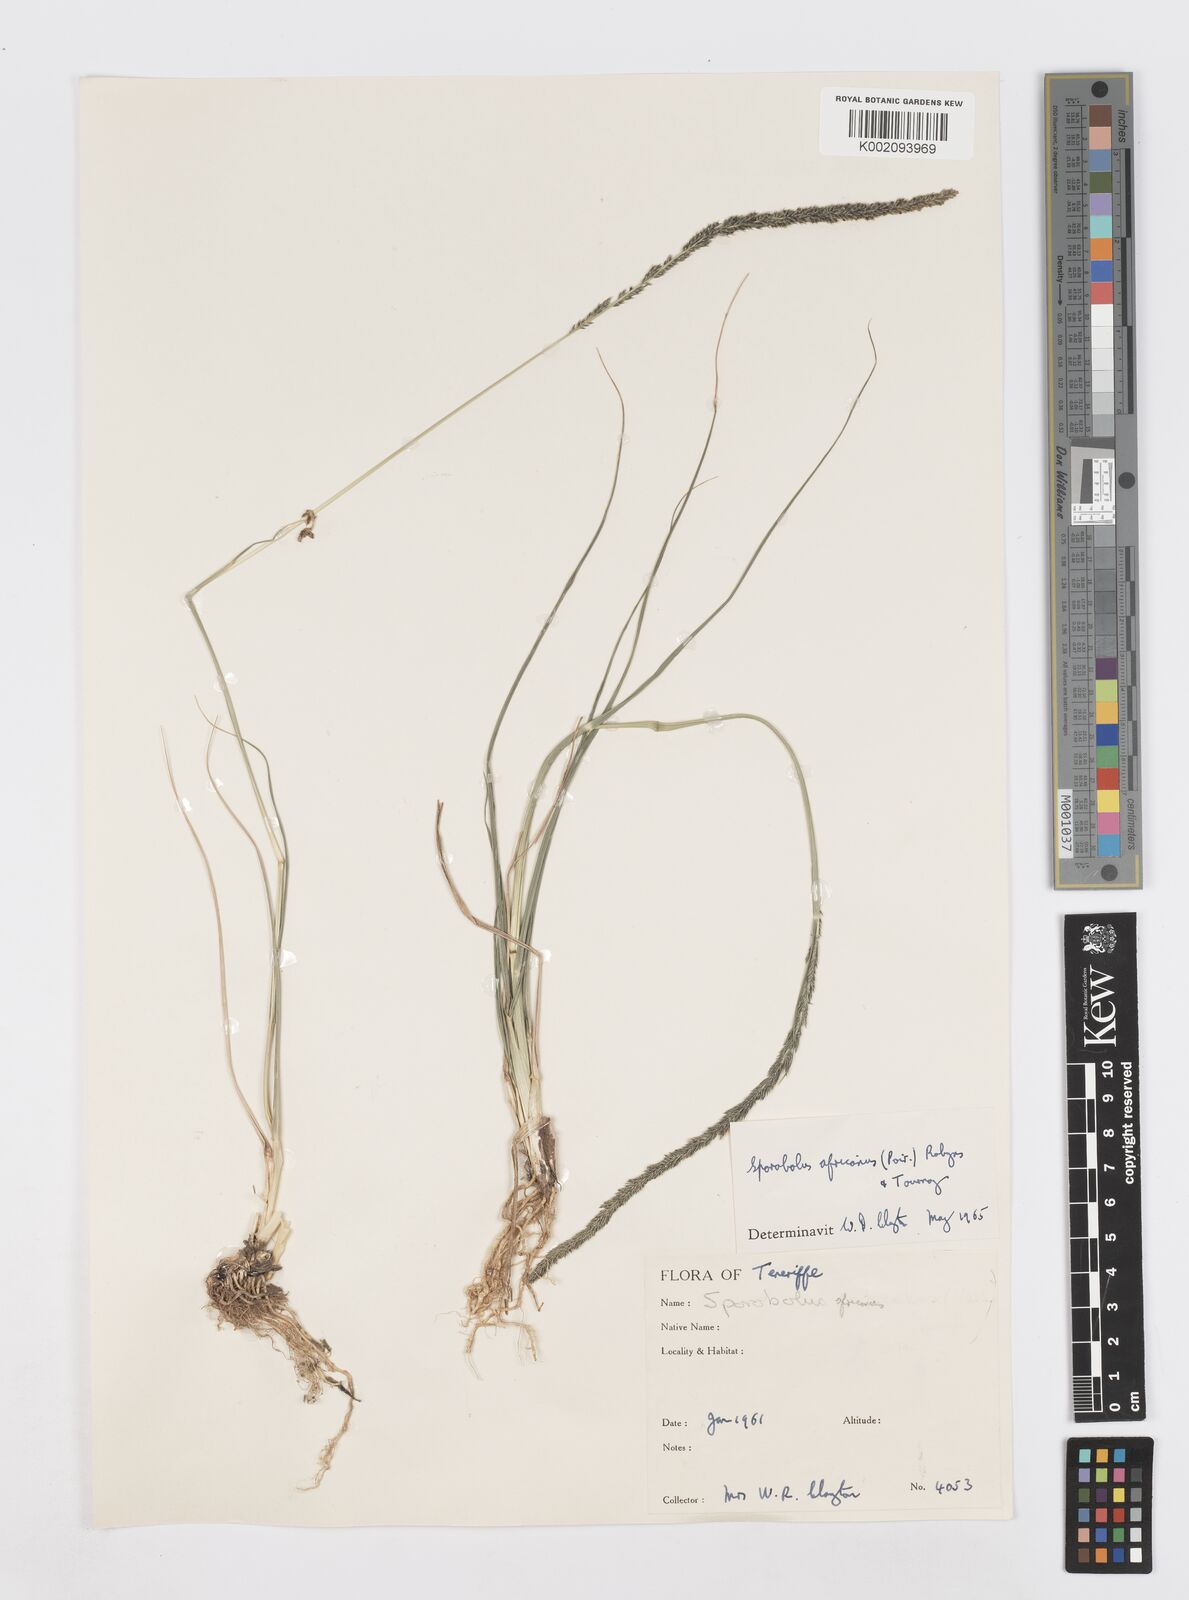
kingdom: Plantae
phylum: Tracheophyta
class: Liliopsida
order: Poales
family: Poaceae
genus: Sporobolus
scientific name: Sporobolus africanus
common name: African dropseed
